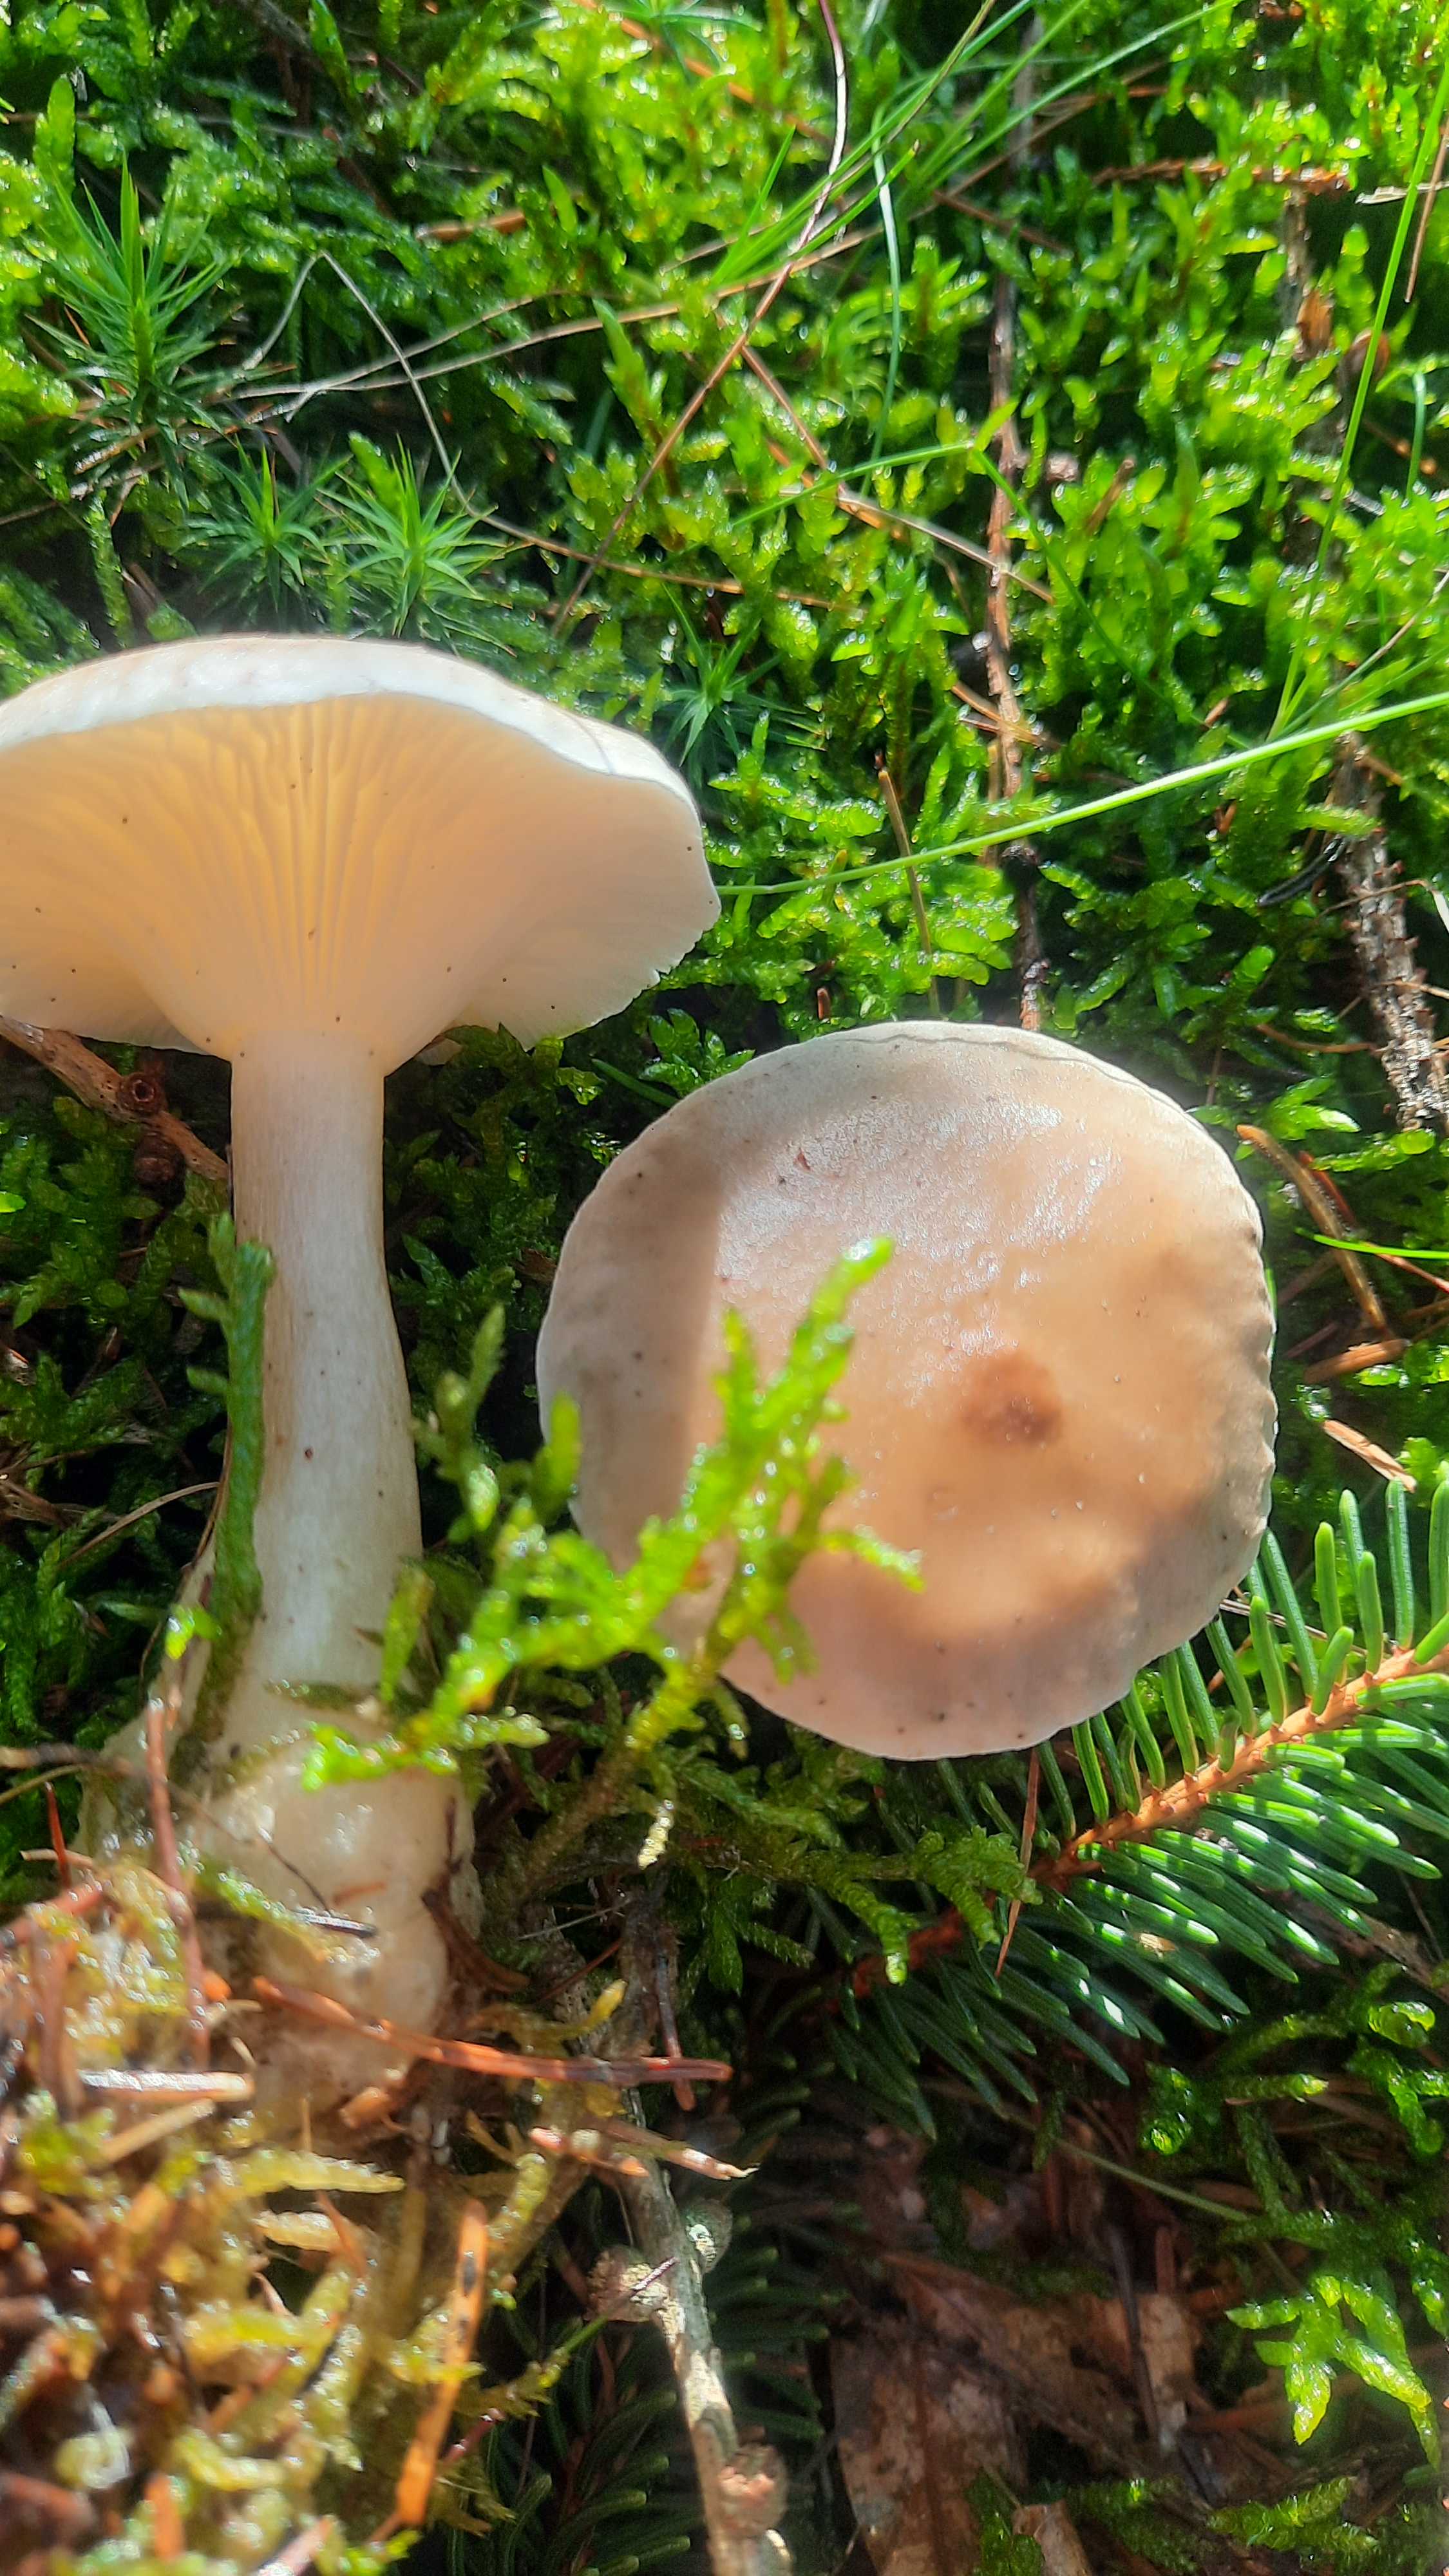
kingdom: Fungi
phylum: Basidiomycota
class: Agaricomycetes
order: Agaricales
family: Hygrophoraceae
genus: Ampulloclitocybe
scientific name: Ampulloclitocybe clavipes
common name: køllefod
